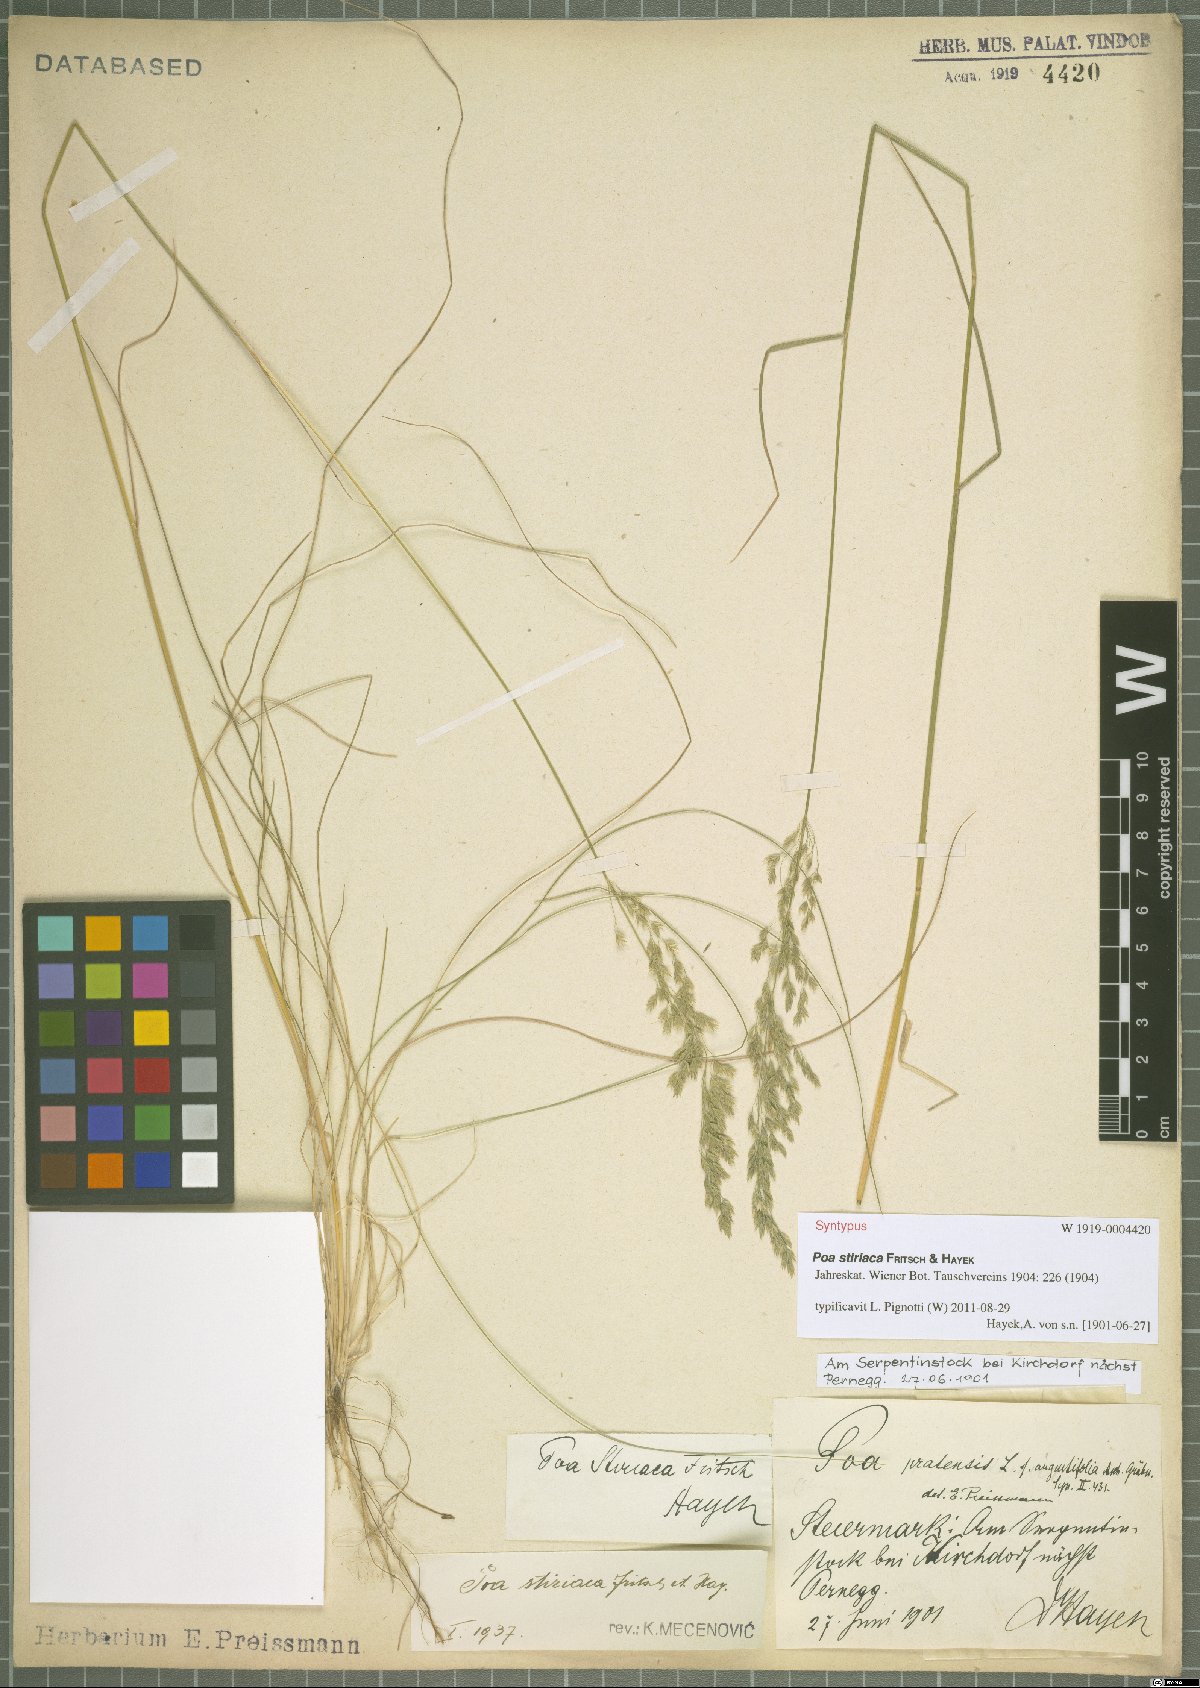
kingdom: Plantae
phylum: Tracheophyta
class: Liliopsida
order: Poales
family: Poaceae
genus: Poa
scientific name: Poa stiriaca
